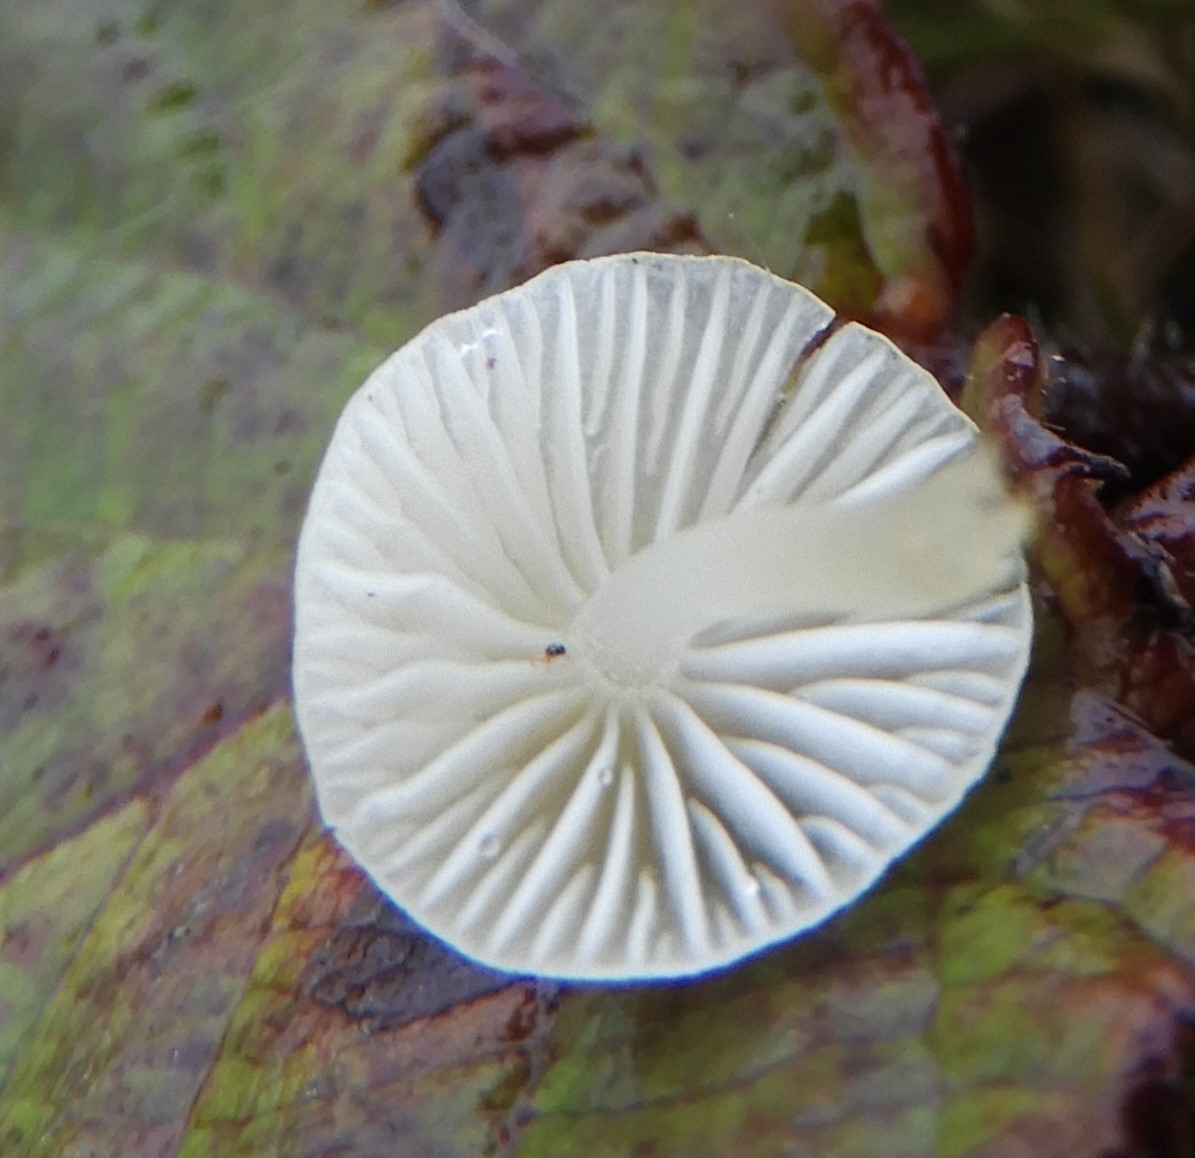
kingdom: Fungi
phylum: Basidiomycota
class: Agaricomycetes
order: Agaricales
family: Mycenaceae
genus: Atheniella
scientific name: Atheniella flavoalba
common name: gulhvid huesvamp
